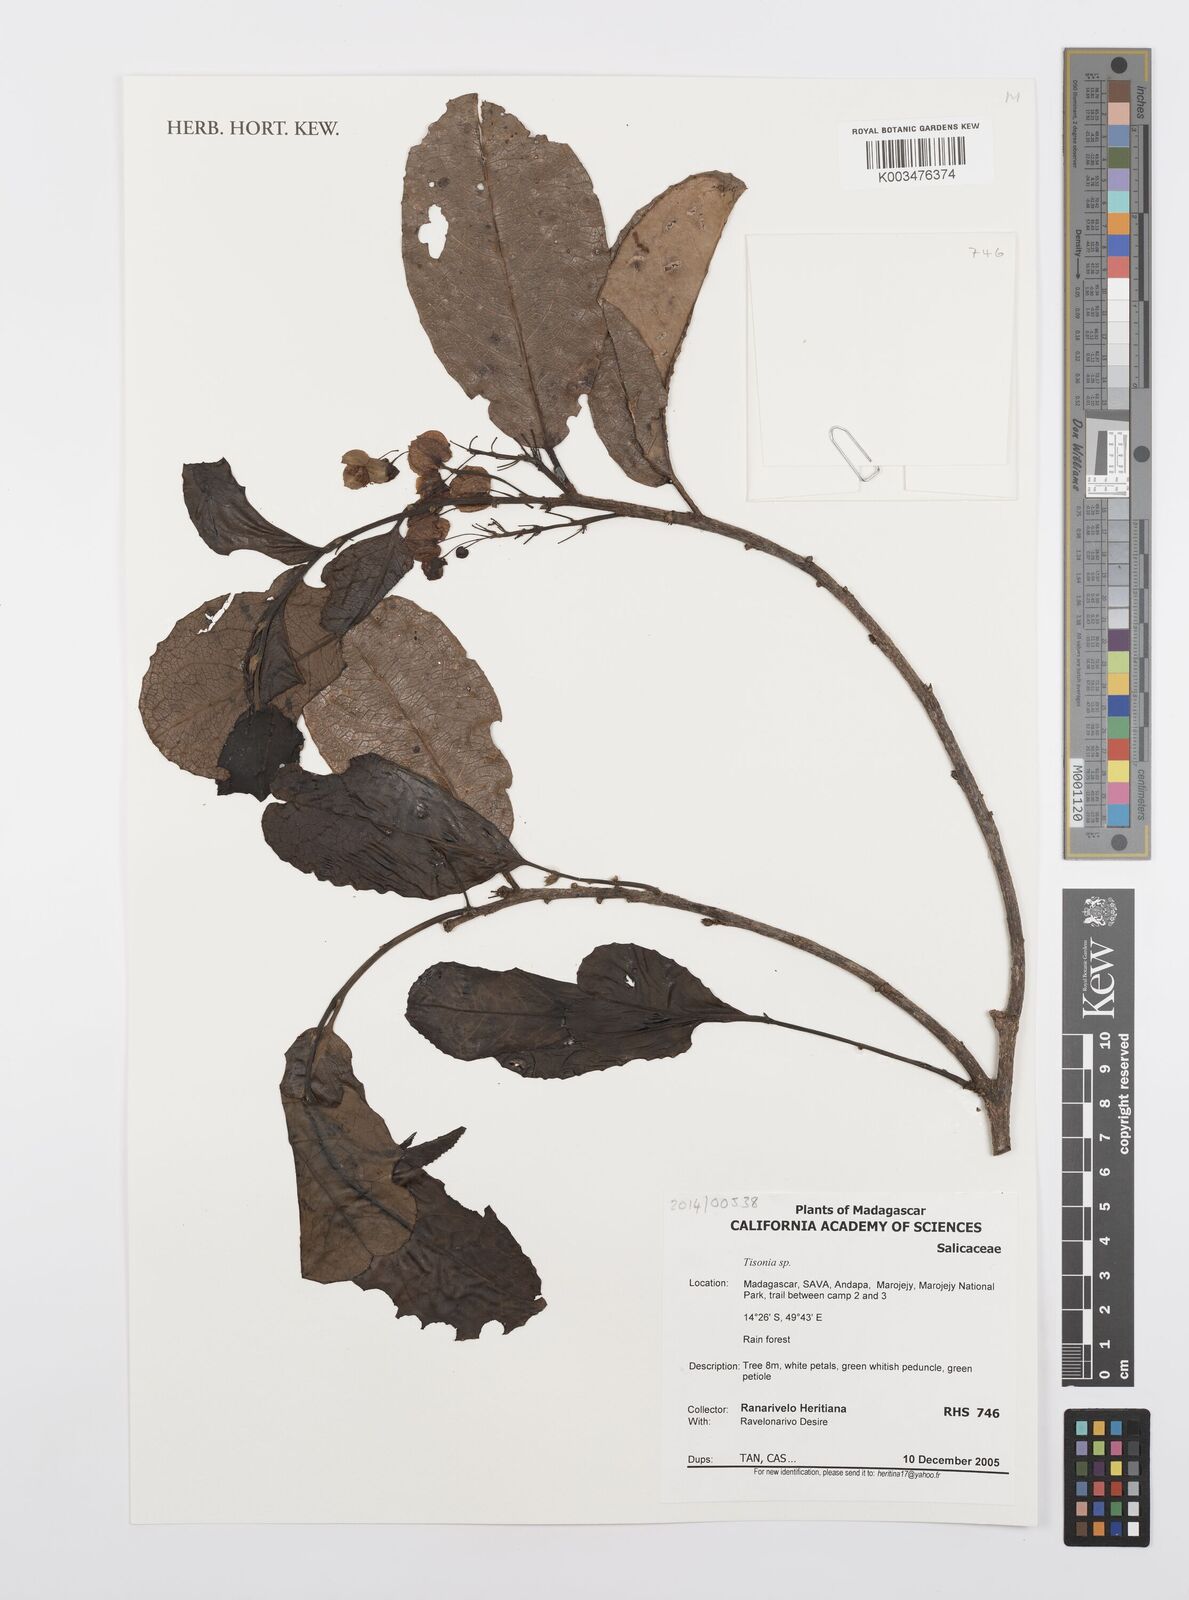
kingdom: Plantae
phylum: Tracheophyta
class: Magnoliopsida
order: Malpighiales
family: Salicaceae
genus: Tisonia
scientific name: Tisonia
